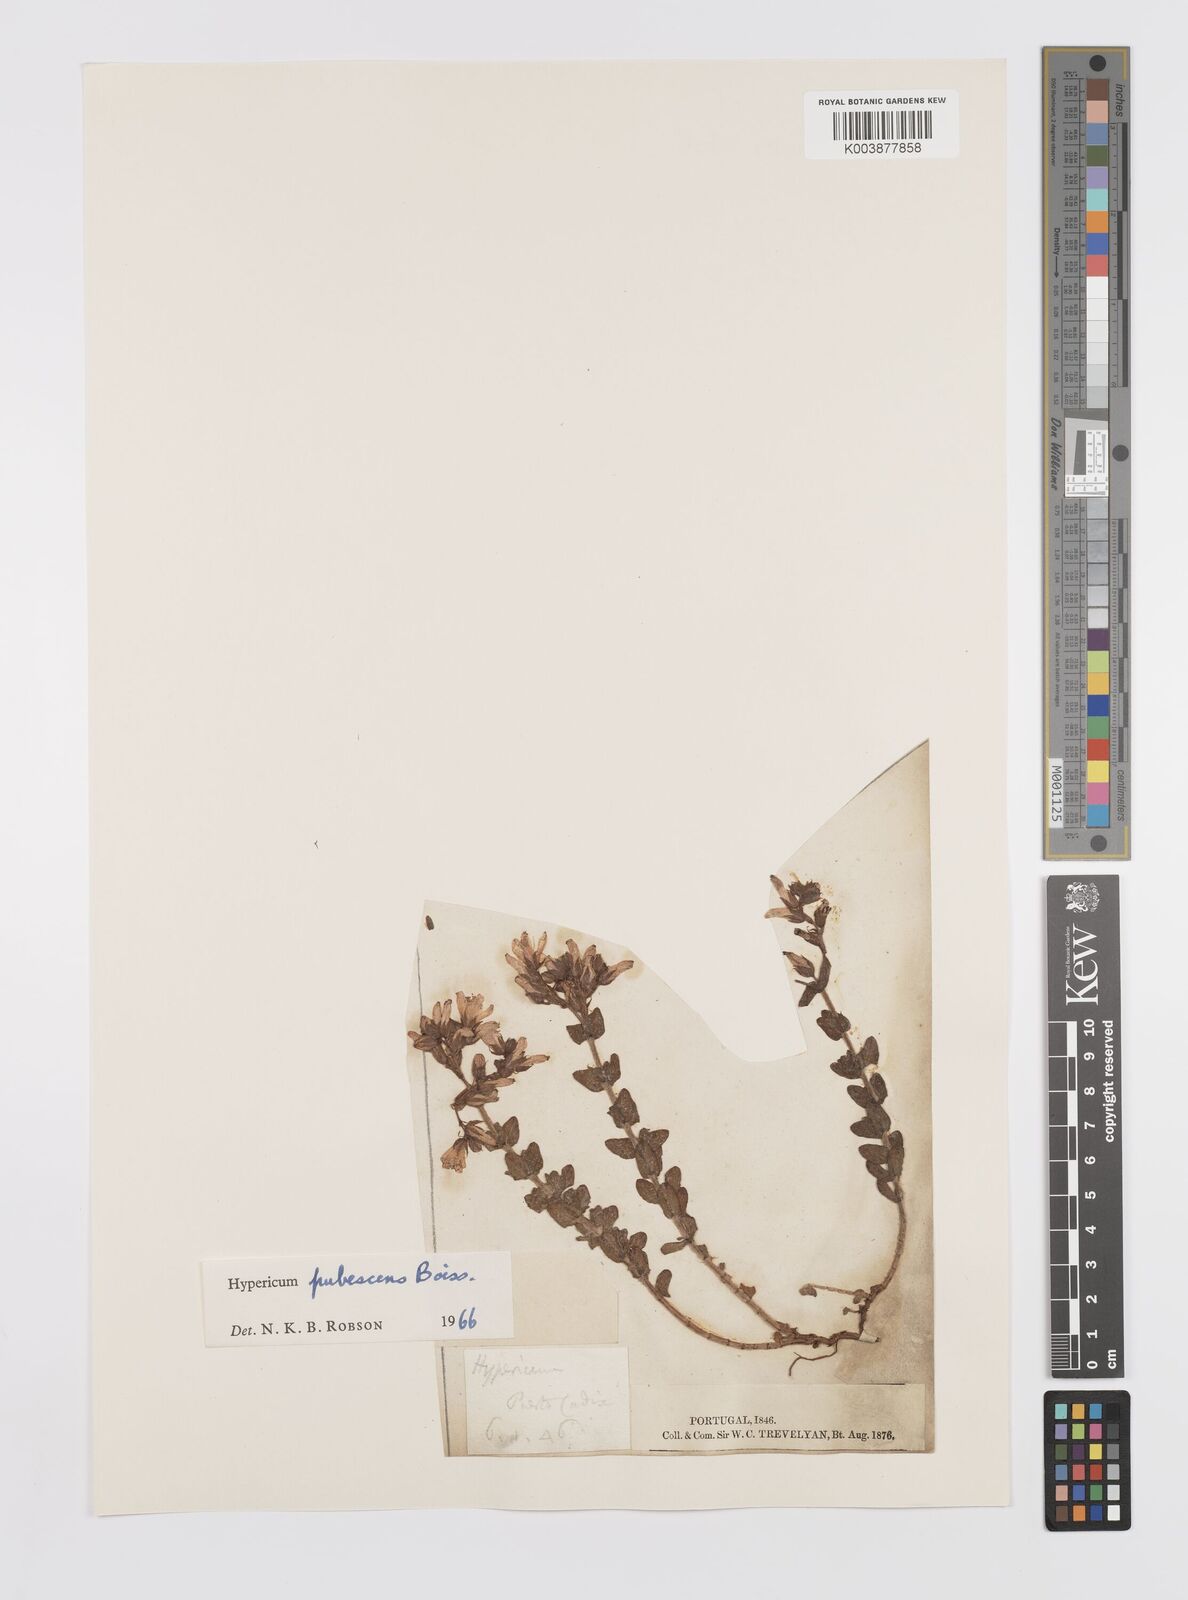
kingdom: Plantae
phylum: Tracheophyta
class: Magnoliopsida
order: Malpighiales
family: Hypericaceae
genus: Hypericum
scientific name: Hypericum pubescens
